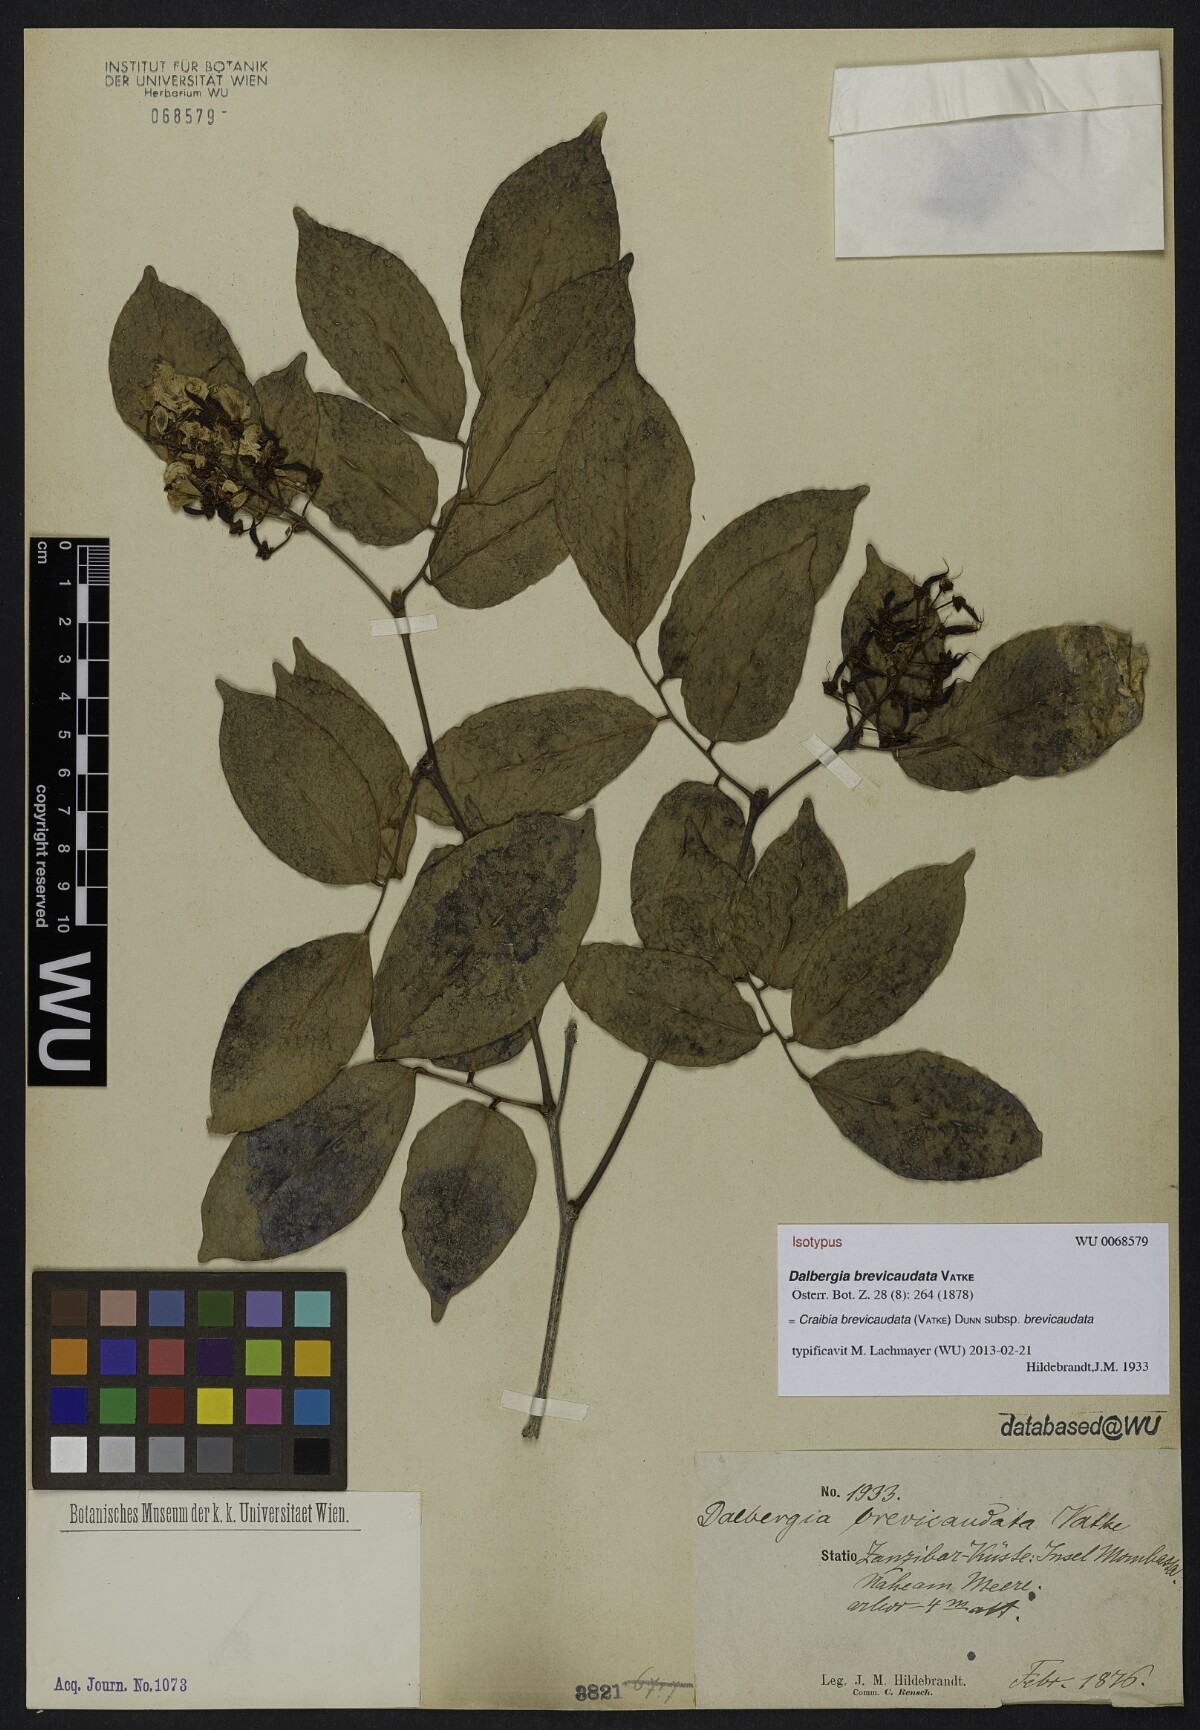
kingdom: Plantae
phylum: Tracheophyta
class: Magnoliopsida
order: Fabales
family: Fabaceae
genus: Craibia
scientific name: Craibia brevicaudata
